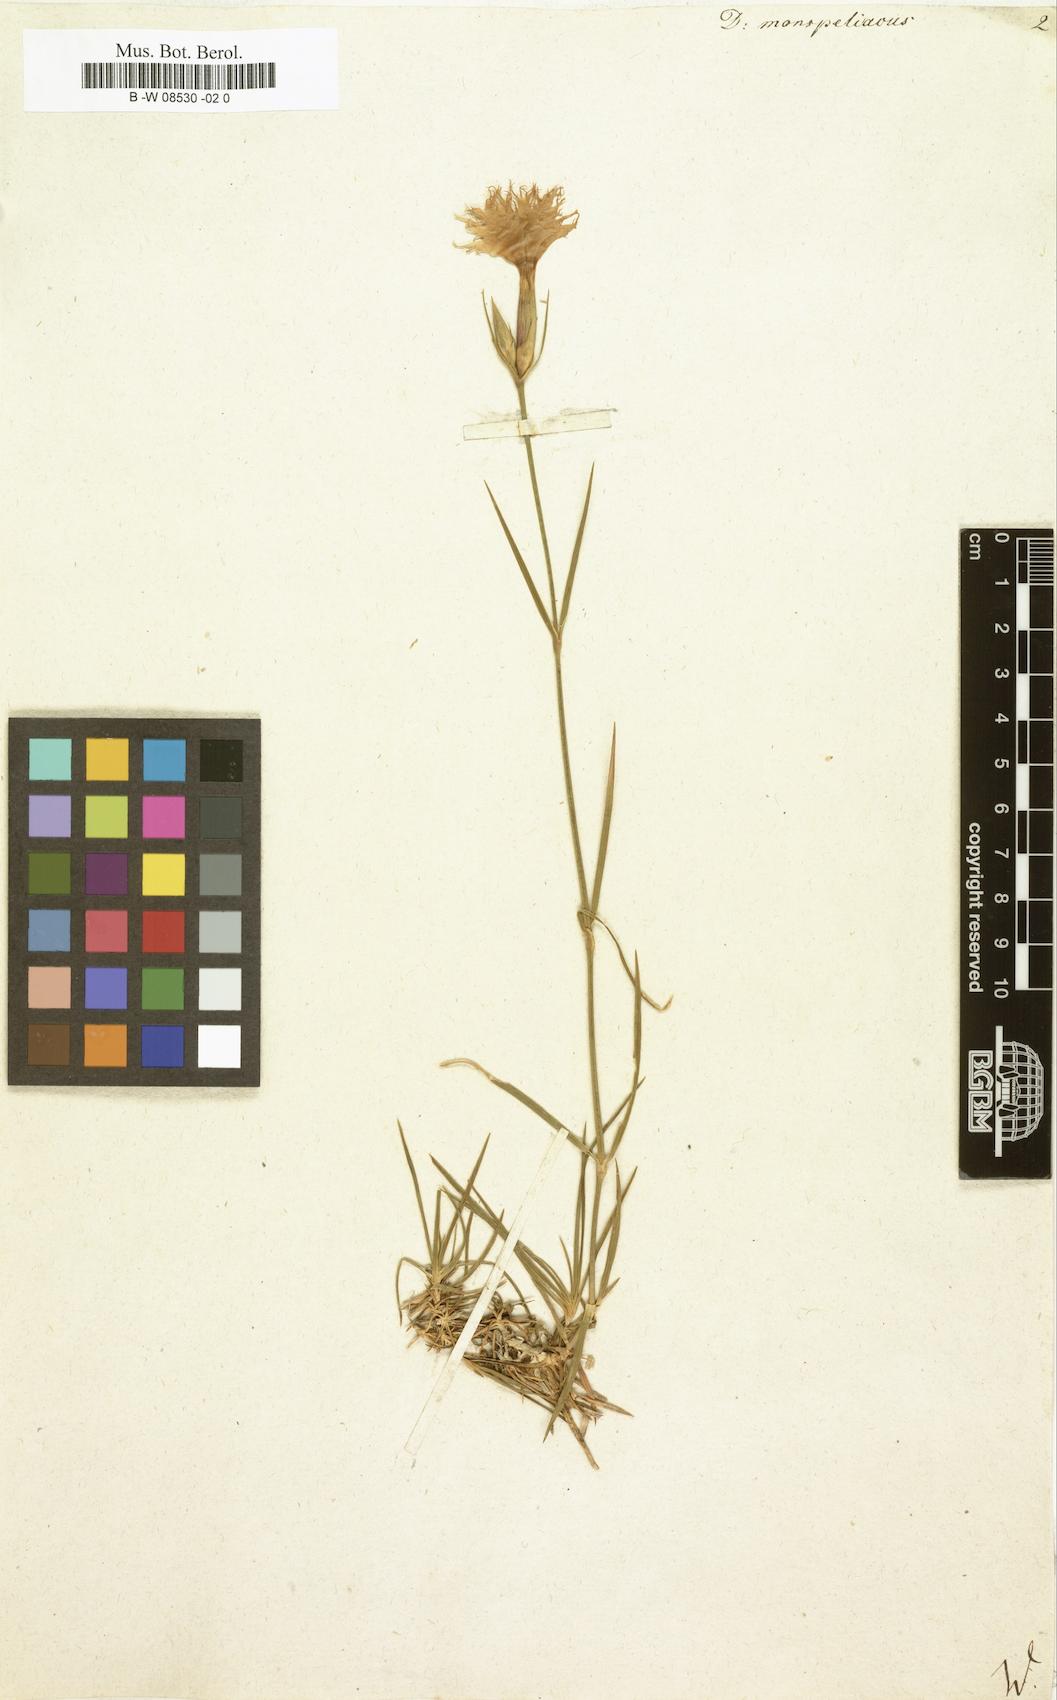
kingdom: Plantae
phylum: Tracheophyta
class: Magnoliopsida
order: Caryophyllales
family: Caryophyllaceae
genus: Dianthus
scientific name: Dianthus hyssopifolius
